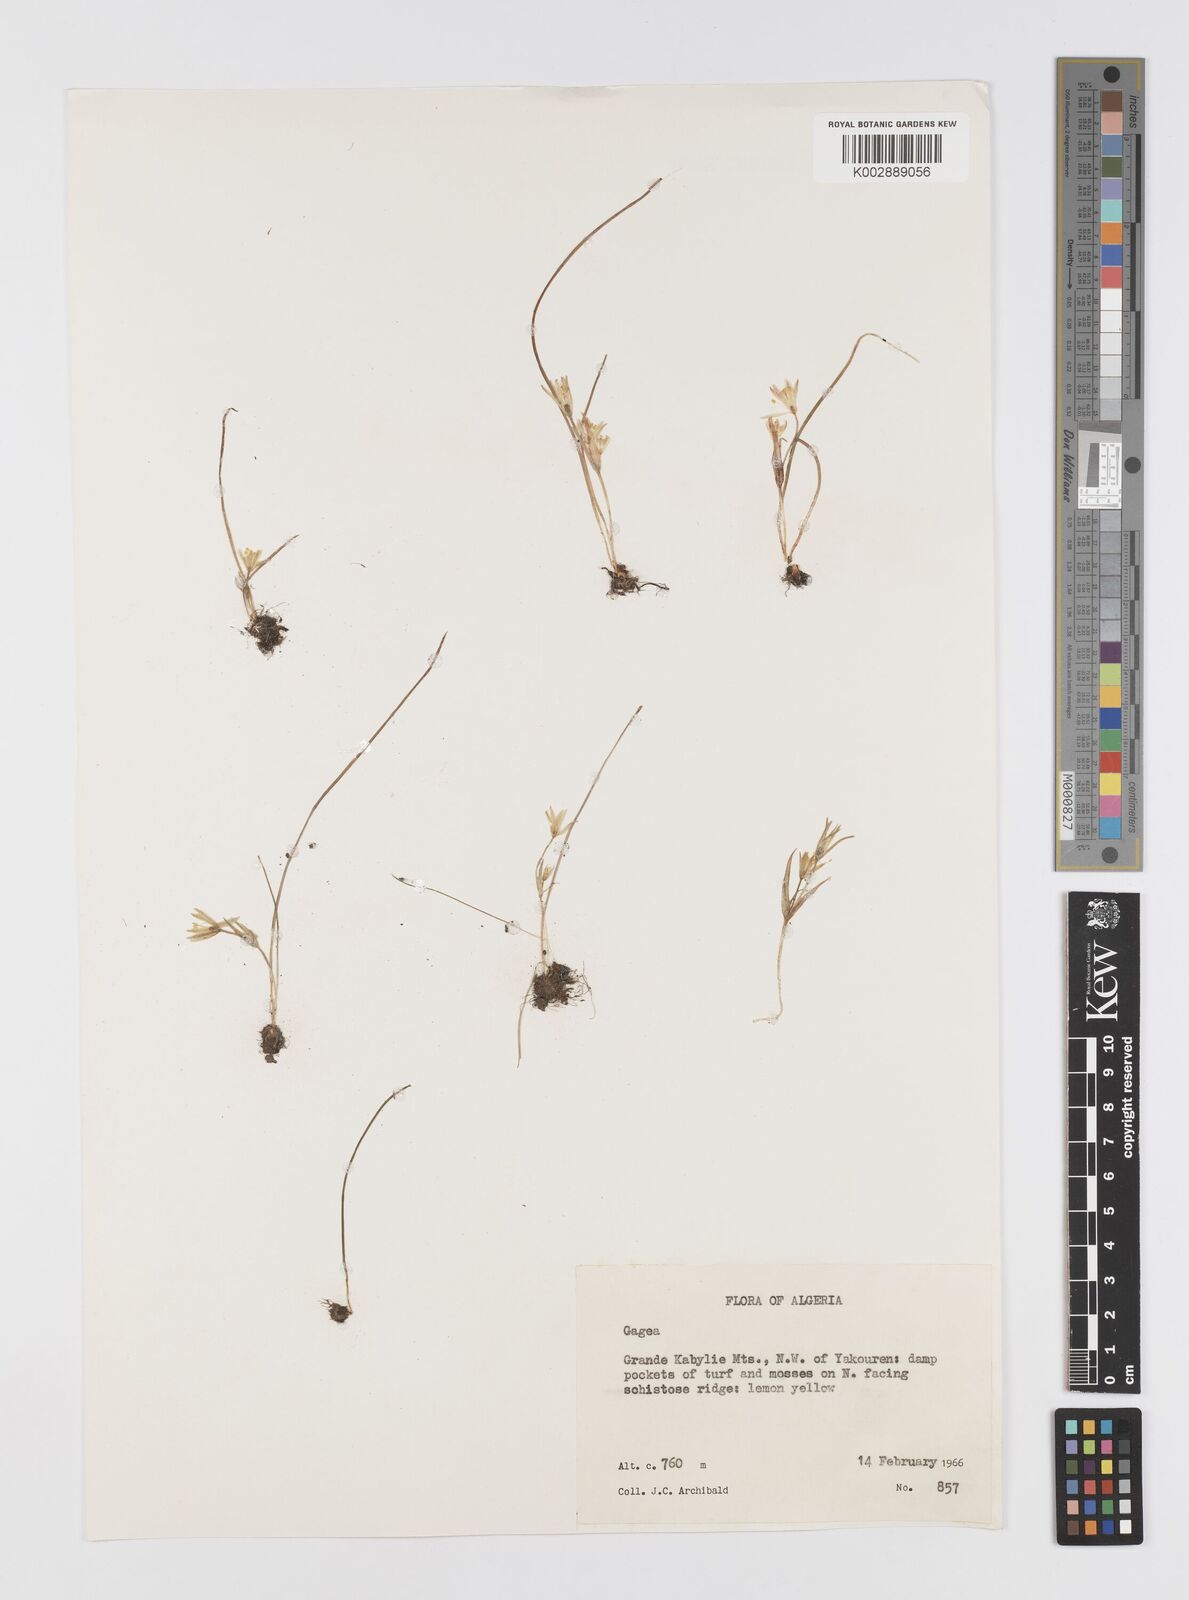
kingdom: Plantae
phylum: Tracheophyta
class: Liliopsida
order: Liliales
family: Liliaceae
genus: Gagea
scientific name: Gagea fibrosa
